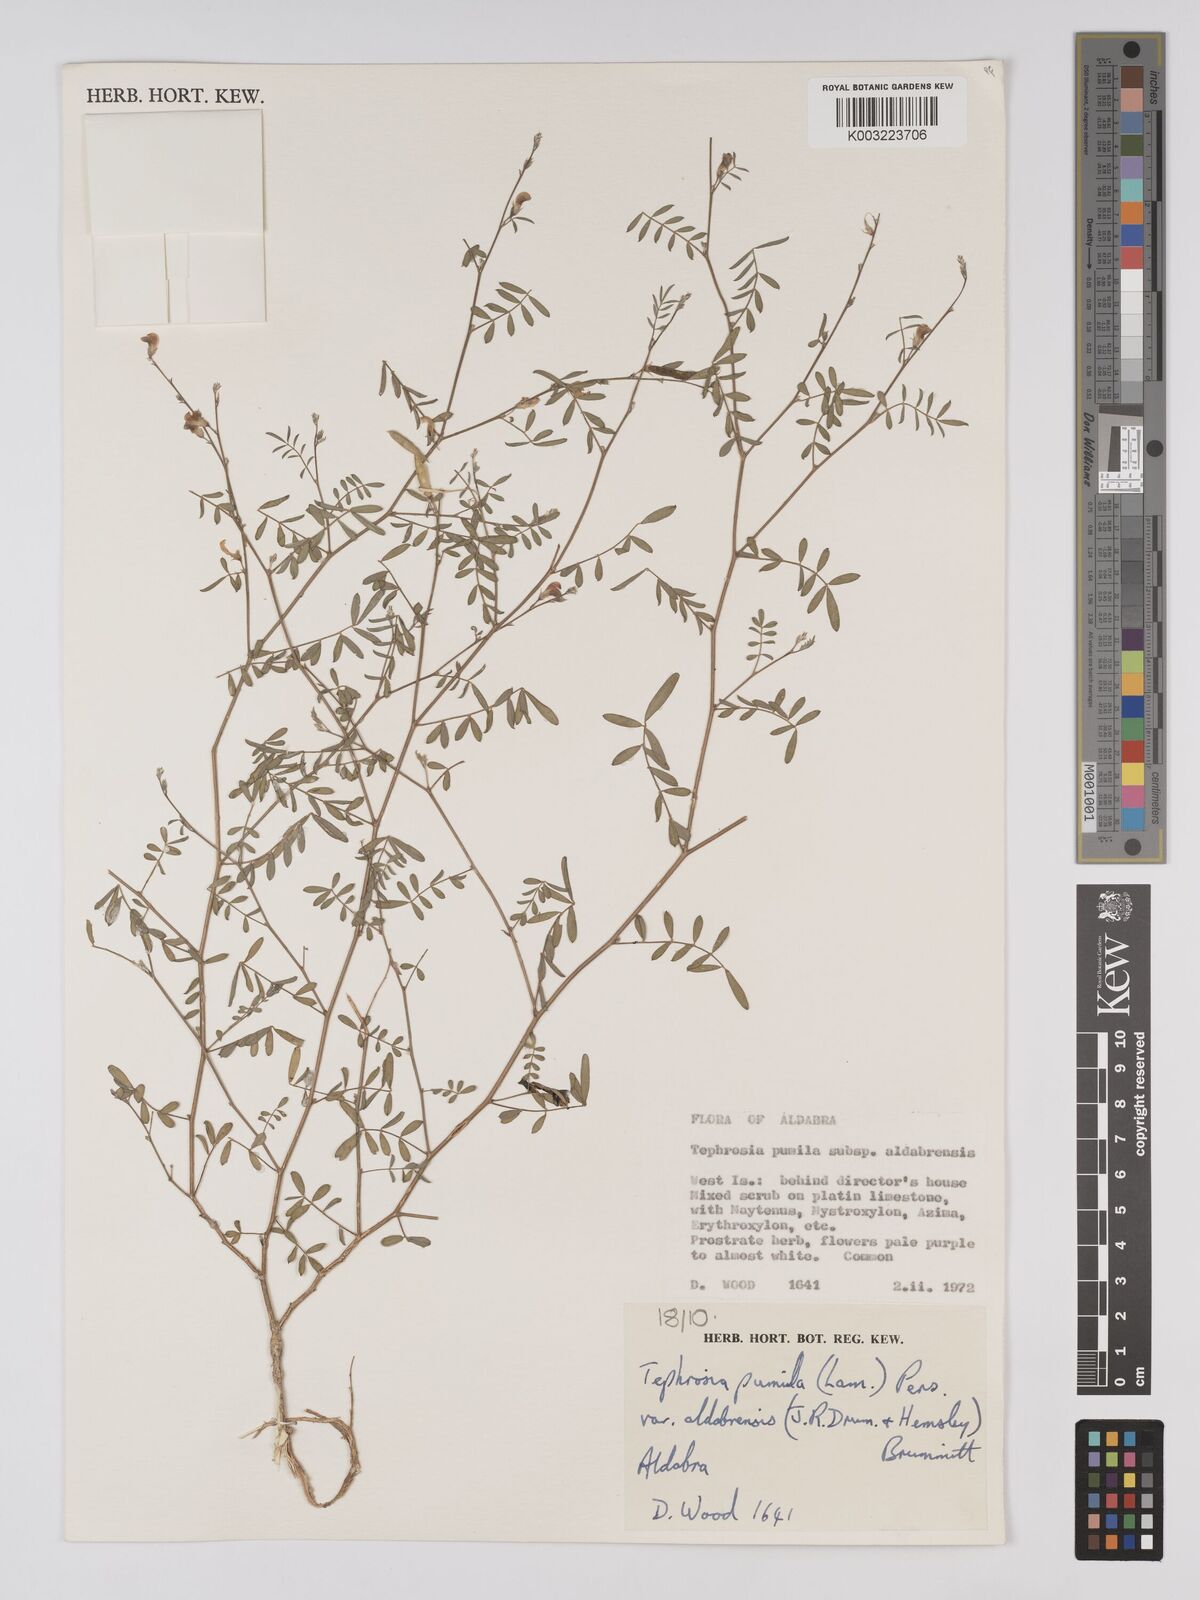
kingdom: Plantae
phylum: Tracheophyta
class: Magnoliopsida
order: Fabales
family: Fabaceae
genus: Tephrosia
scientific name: Tephrosia pumila
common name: Indigo sauvage
